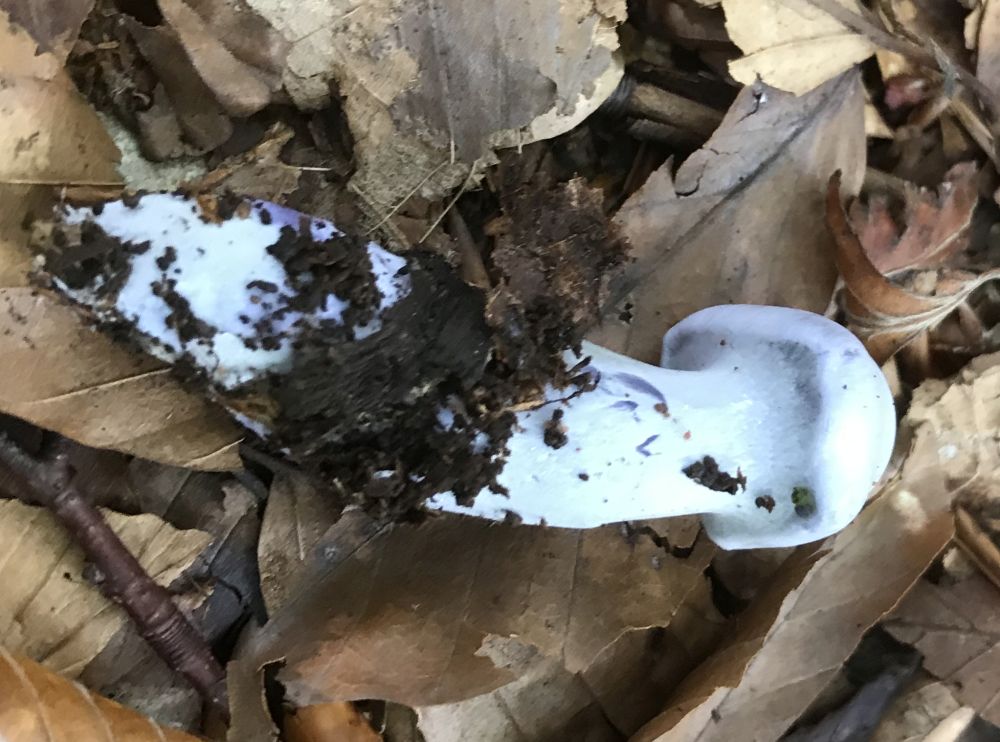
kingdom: Fungi
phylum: Basidiomycota
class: Agaricomycetes
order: Agaricales
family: Cortinariaceae
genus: Cortinarius
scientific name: Cortinarius alboviolaceus
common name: lysviolet slørhat
